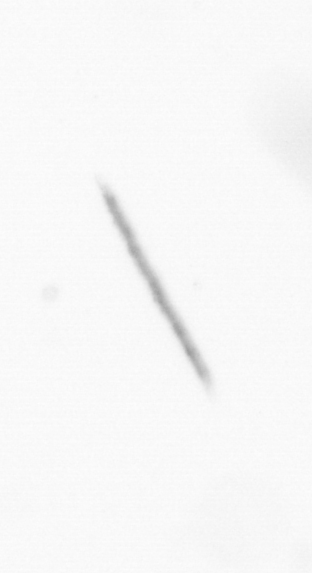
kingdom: Chromista
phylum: Ochrophyta
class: Bacillariophyceae
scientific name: Bacillariophyceae
